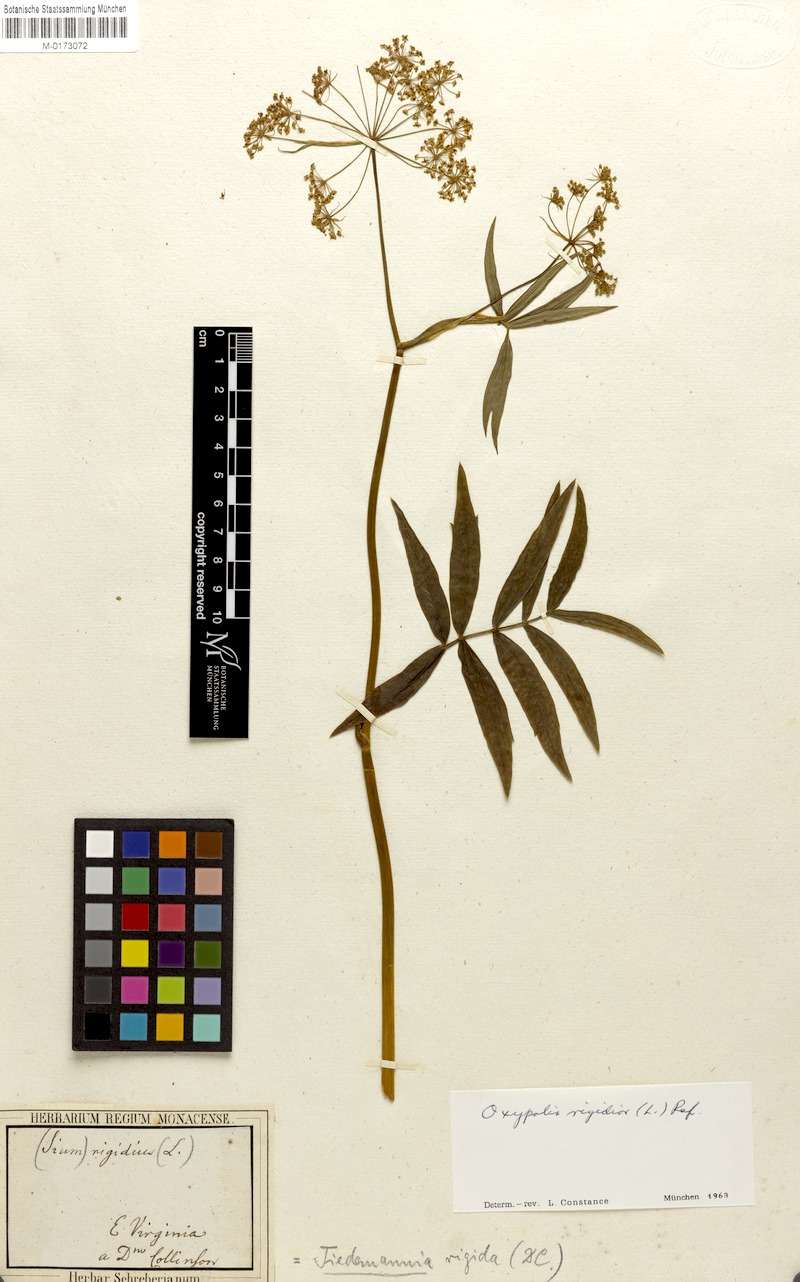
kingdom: Plantae
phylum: Tracheophyta
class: Magnoliopsida
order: Apiales
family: Apiaceae
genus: Oxypolis
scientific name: Oxypolis rigidior
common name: Cowbane
